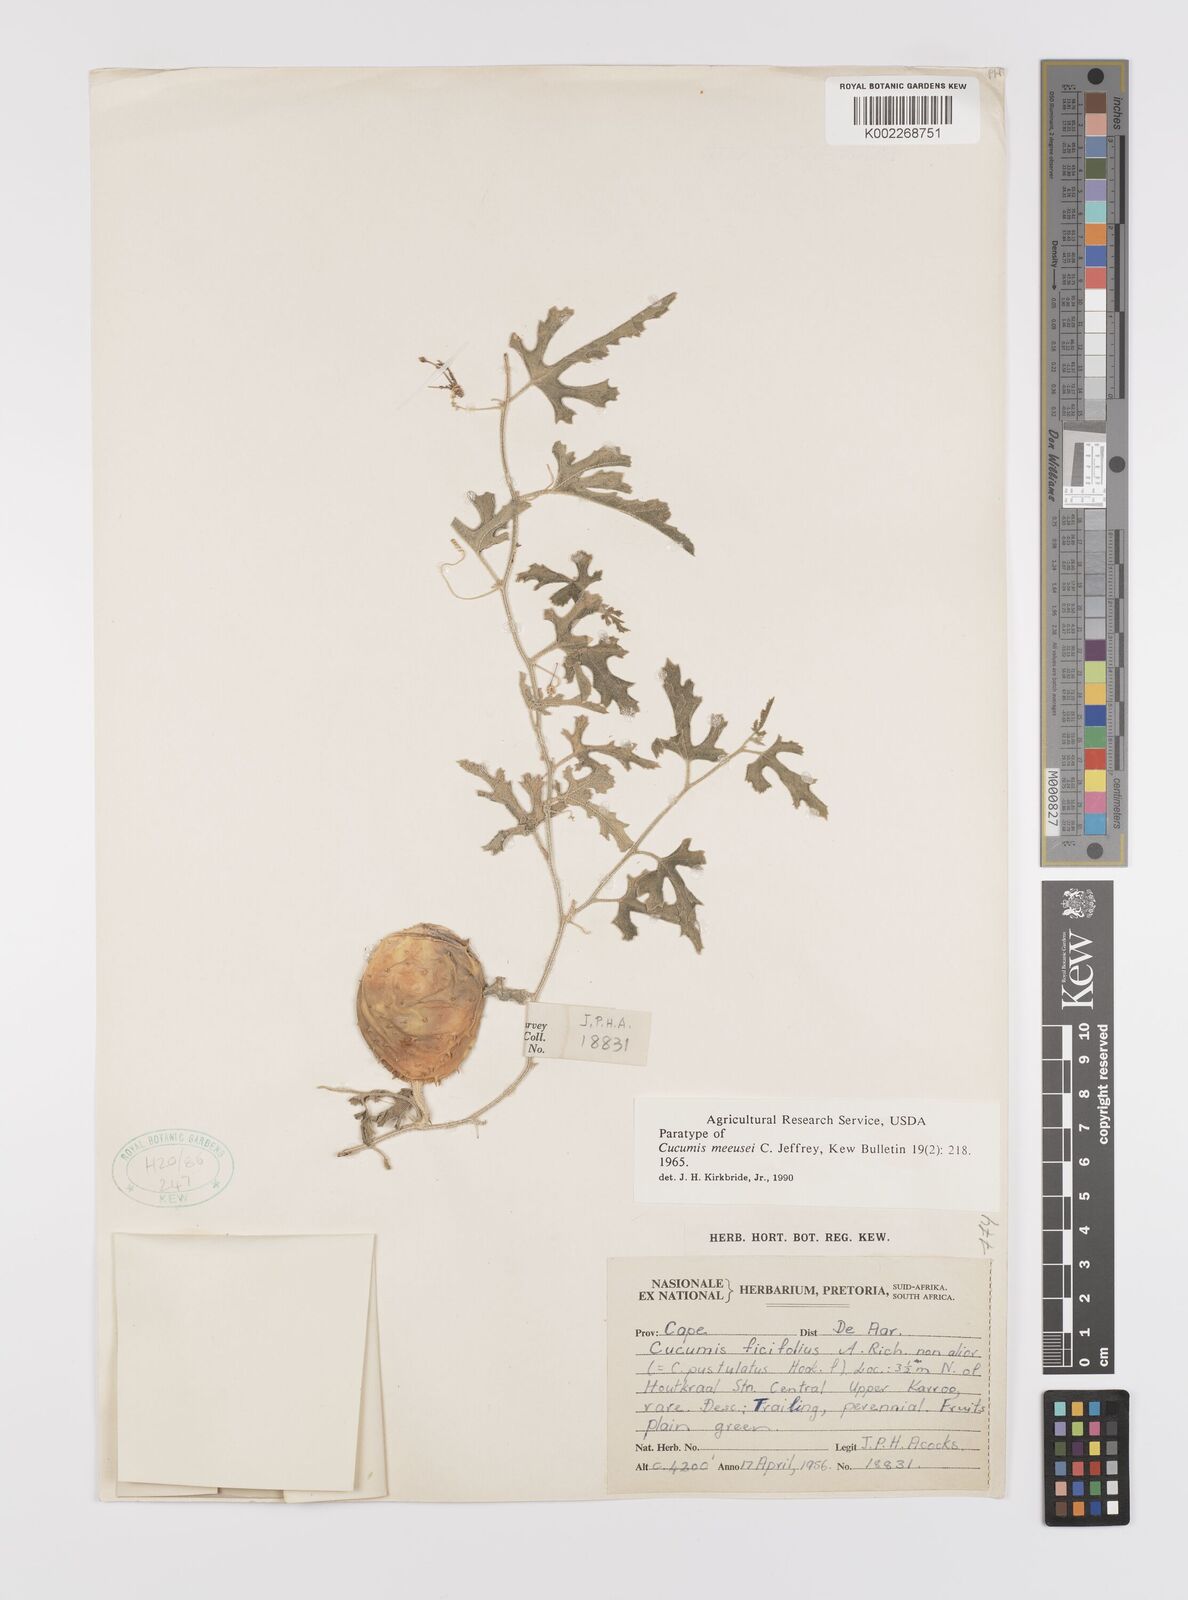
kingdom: Plantae
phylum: Tracheophyta
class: Magnoliopsida
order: Cucurbitales
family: Cucurbitaceae
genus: Cucumis
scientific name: Cucumis meeusei
